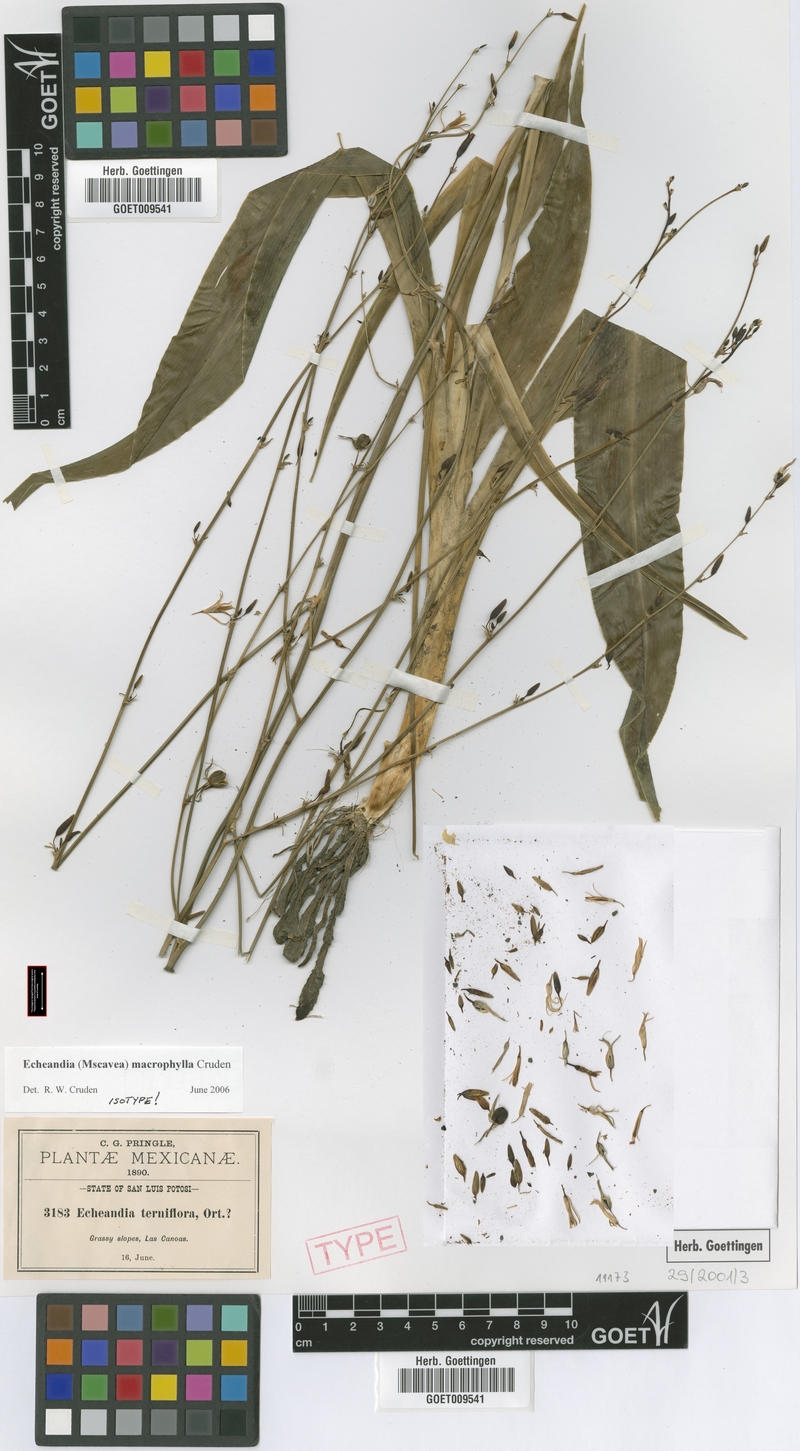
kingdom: Plantae
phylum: Tracheophyta
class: Liliopsida
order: Asparagales
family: Asparagaceae
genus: Echeandia
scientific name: Echeandia macrophylla
